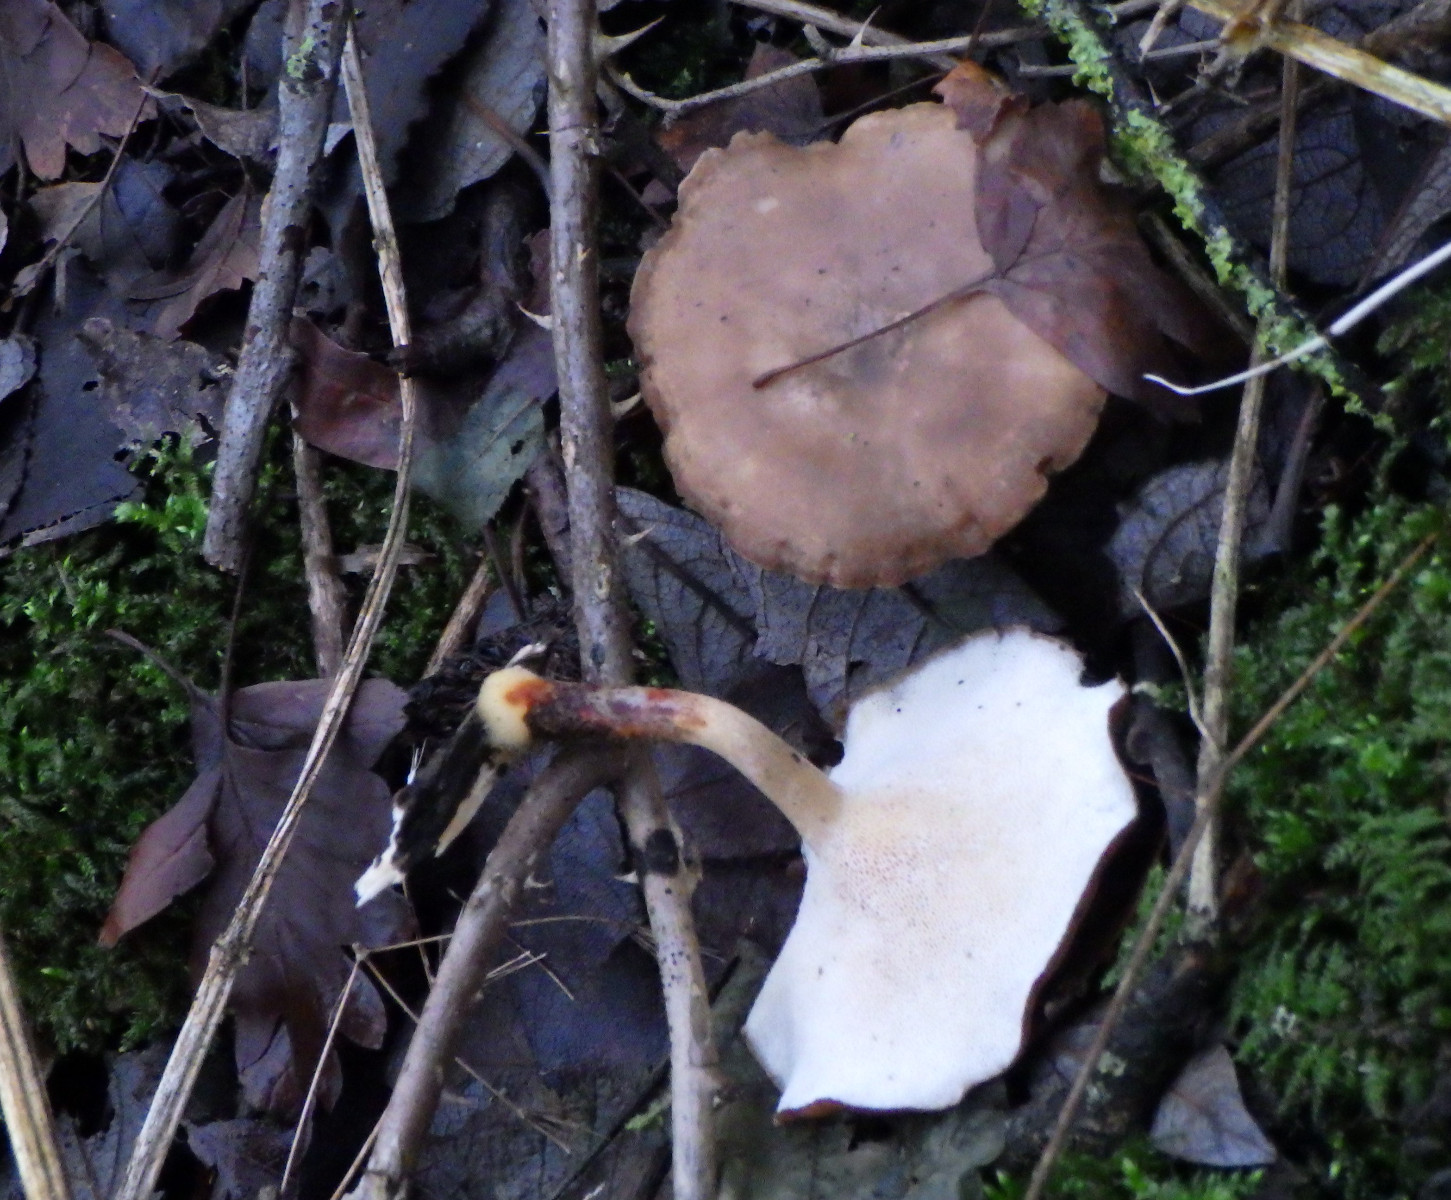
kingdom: Fungi
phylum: Basidiomycota
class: Agaricomycetes
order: Polyporales
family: Polyporaceae
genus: Lentinus
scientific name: Lentinus brumalis
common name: vinter-stilkporesvamp
